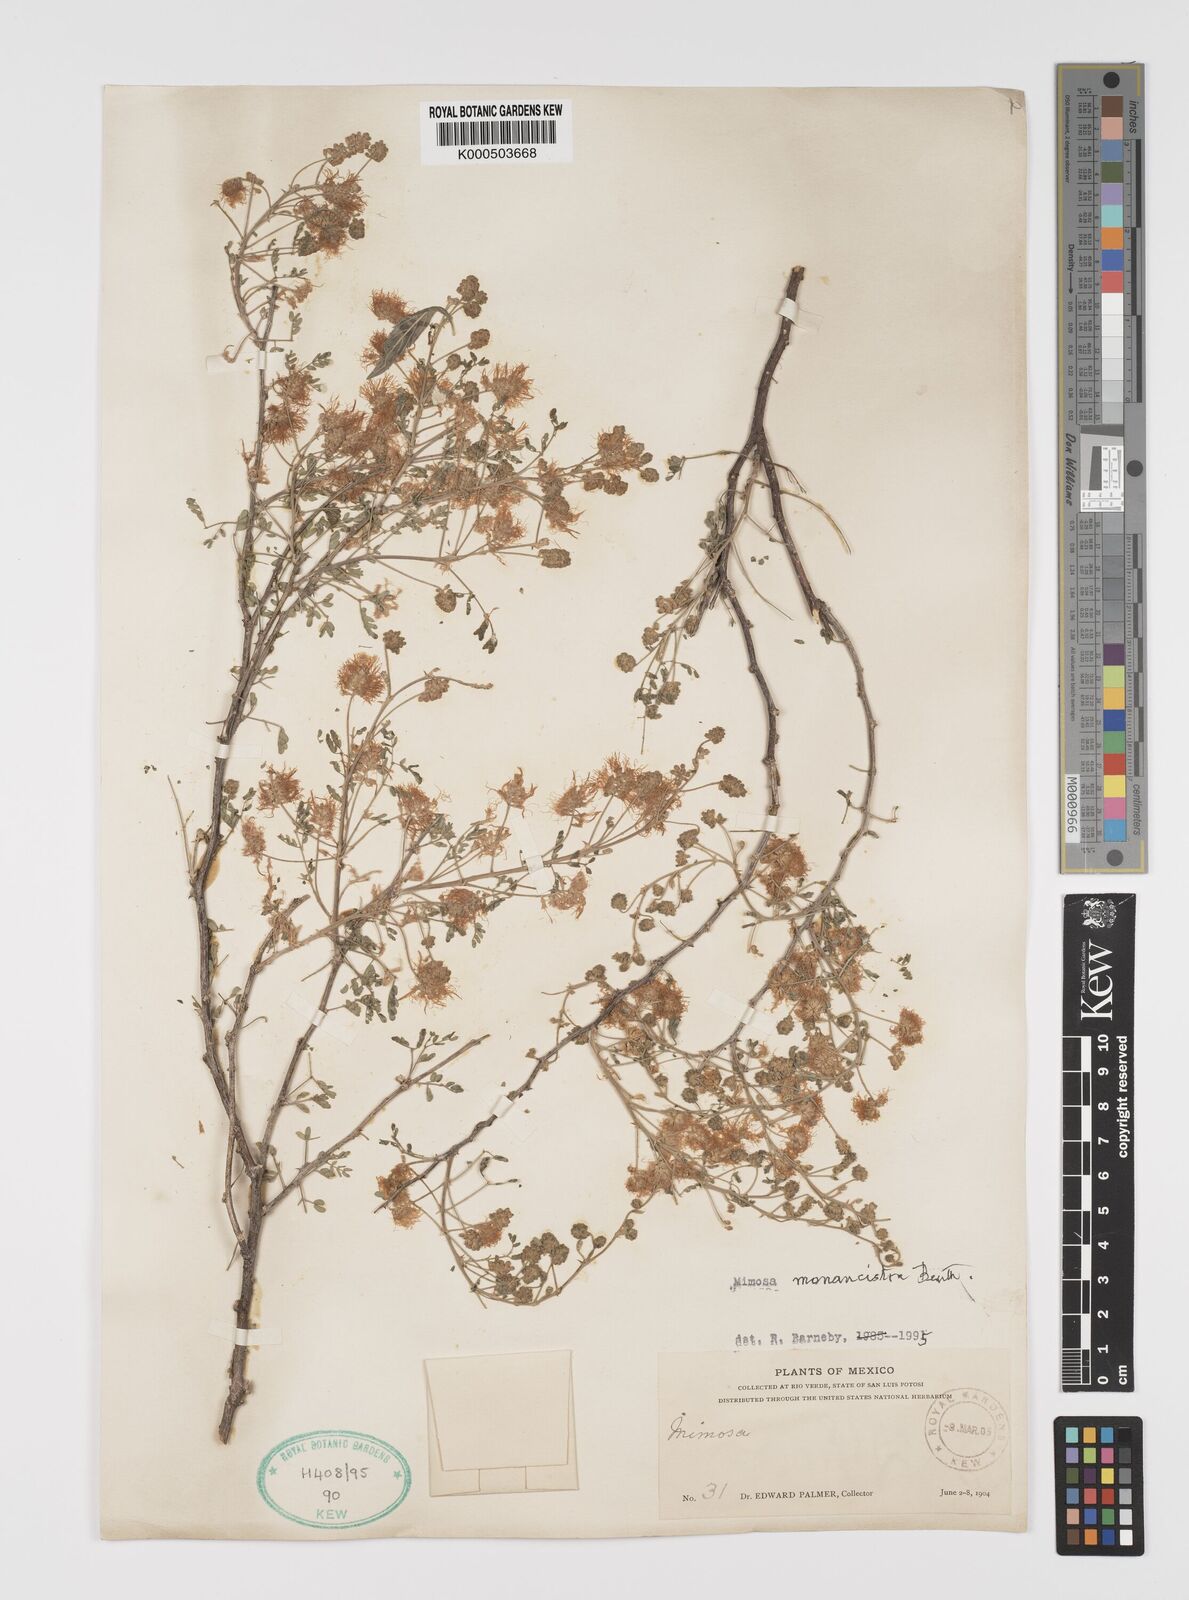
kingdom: Plantae
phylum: Tracheophyta
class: Magnoliopsida
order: Fabales
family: Fabaceae
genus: Mimosa
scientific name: Mimosa monancistra
